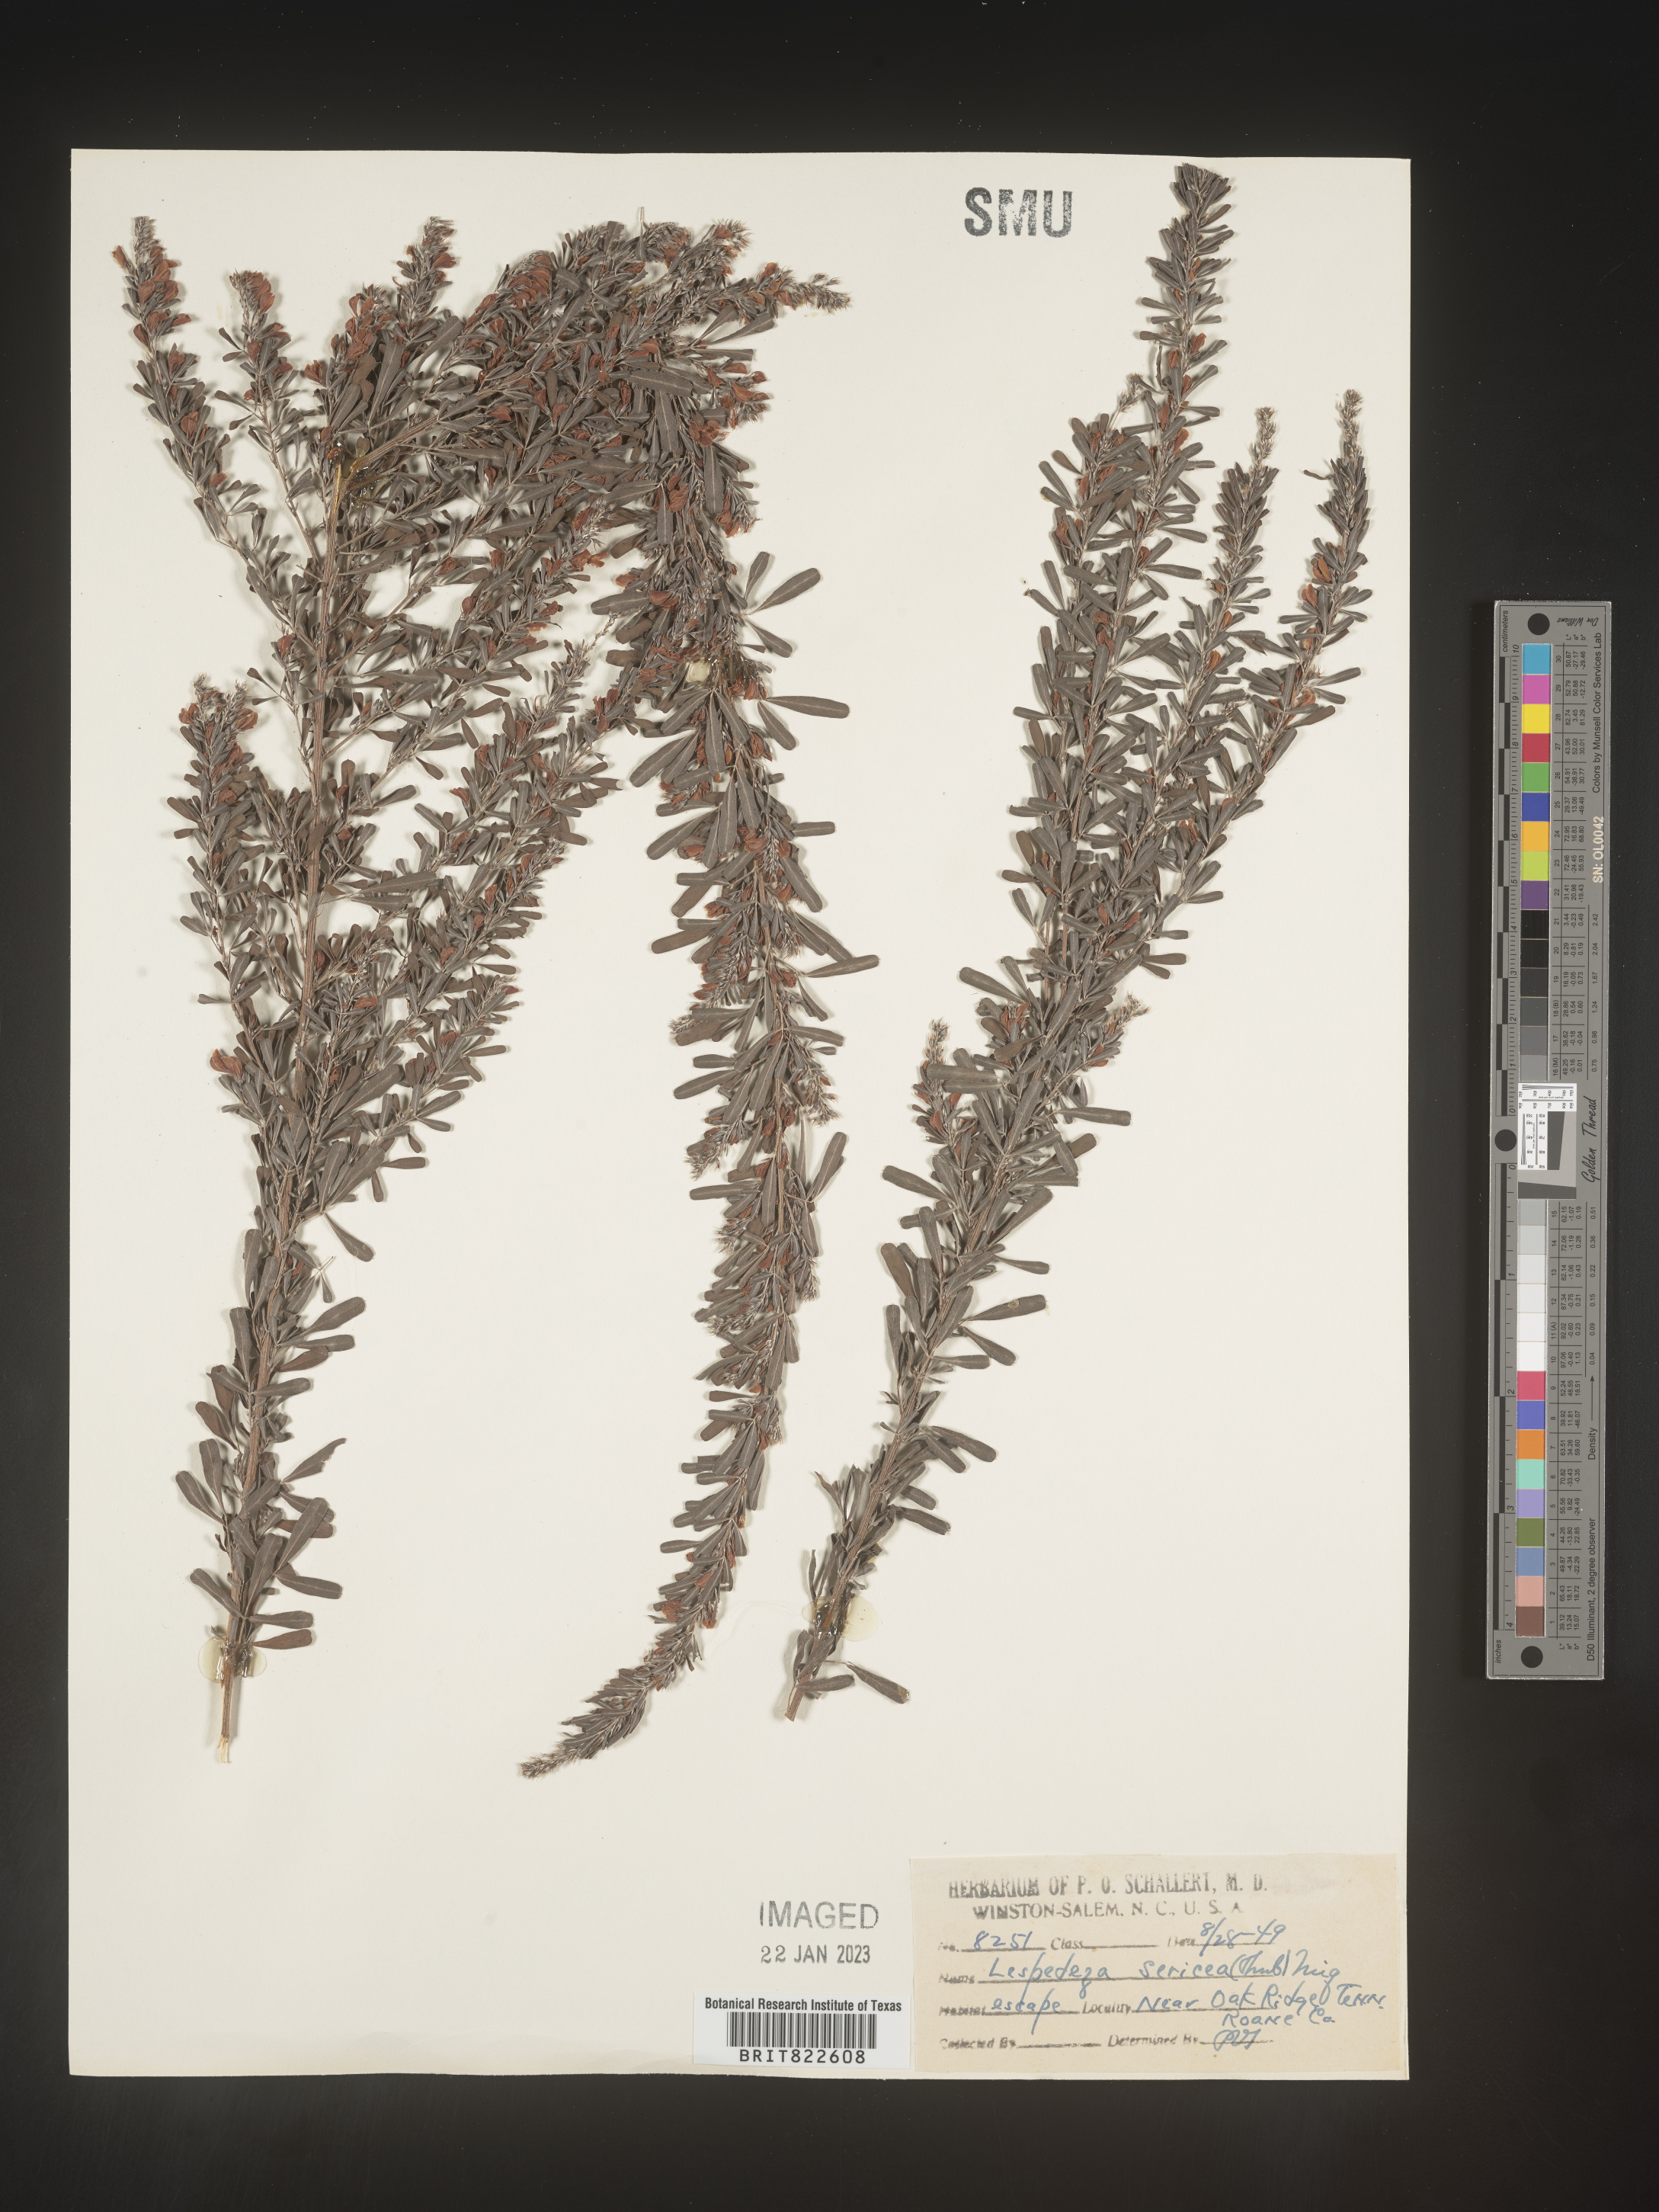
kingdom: Plantae
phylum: Tracheophyta
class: Magnoliopsida
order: Fabales
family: Fabaceae
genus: Lespedeza
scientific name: Lespedeza cuneata
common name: Chinese bush-clover
